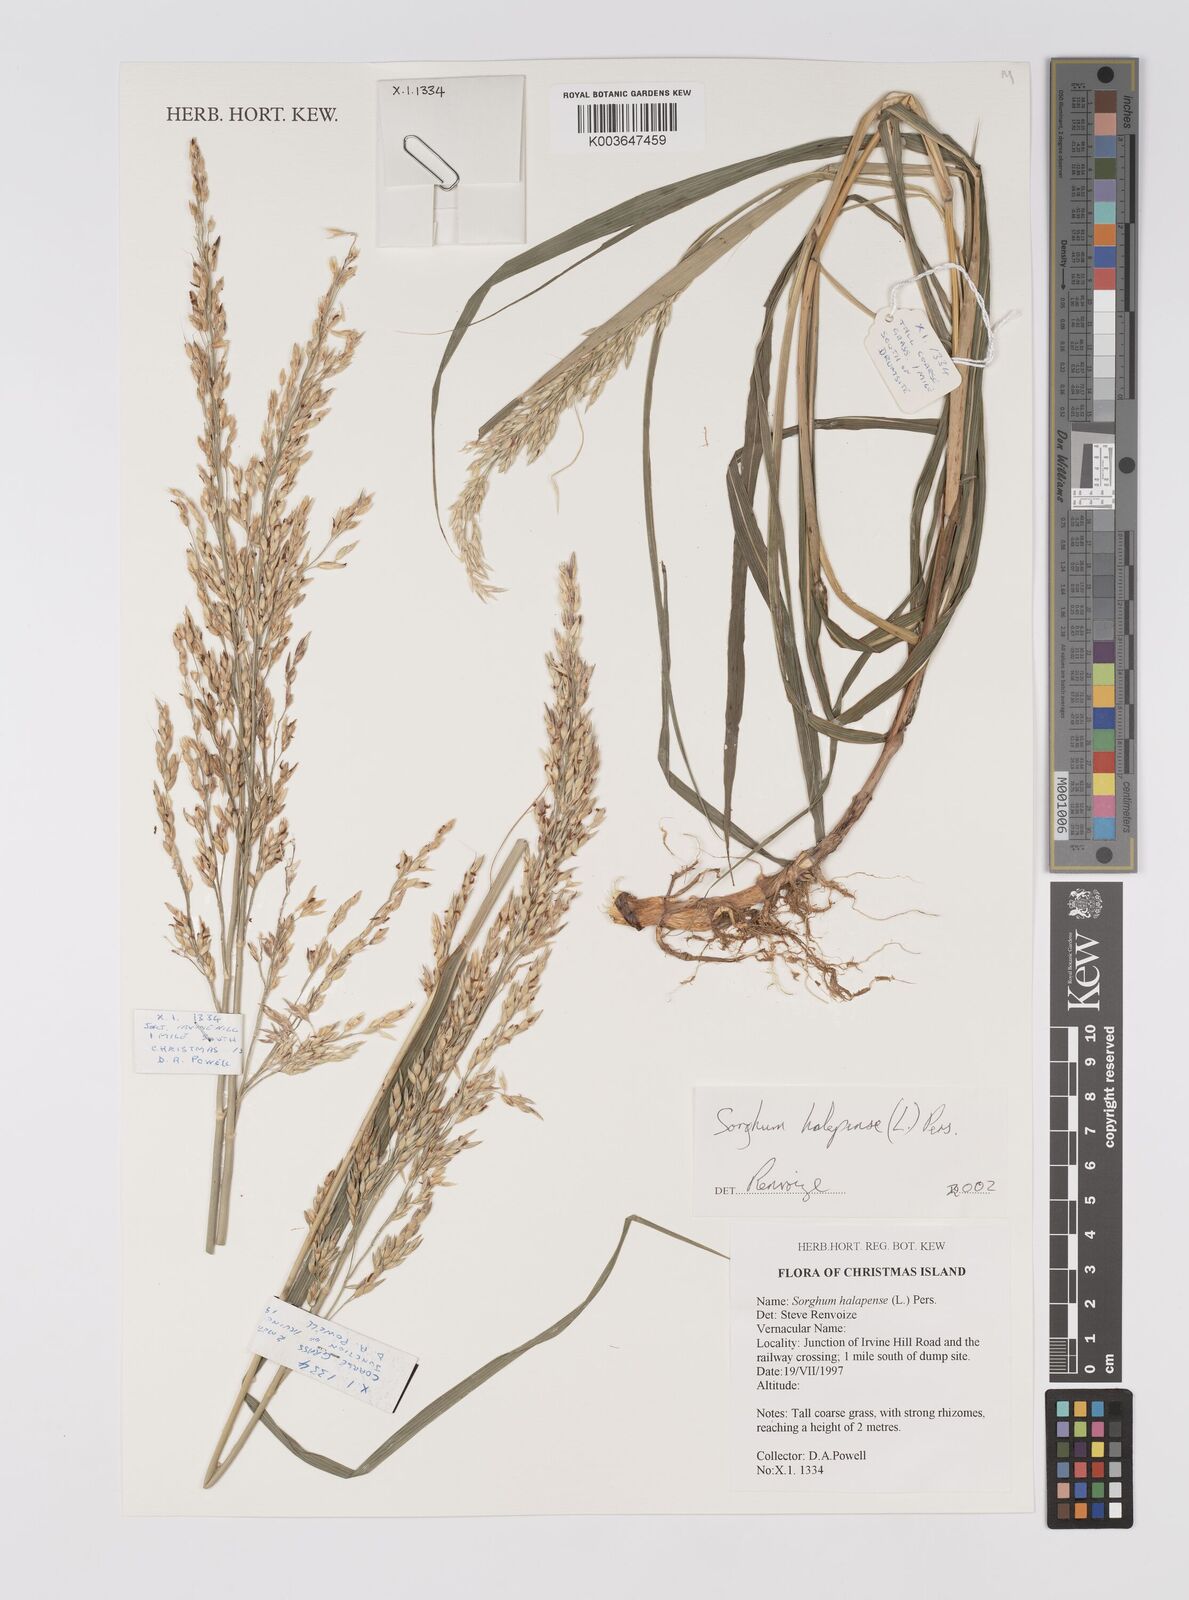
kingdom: Plantae
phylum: Tracheophyta
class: Liliopsida
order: Poales
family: Poaceae
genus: Sorghum
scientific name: Sorghum halepense
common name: Johnson-grass
